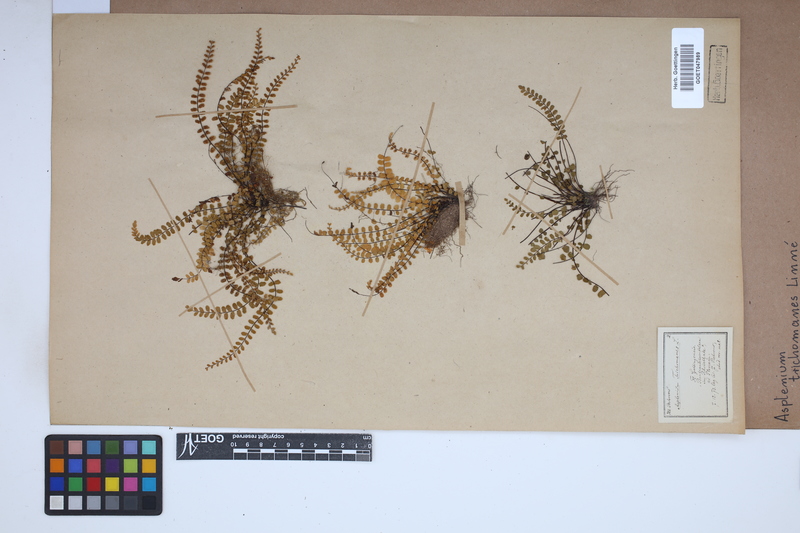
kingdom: Plantae
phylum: Tracheophyta
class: Polypodiopsida
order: Polypodiales
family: Aspleniaceae
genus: Asplenium
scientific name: Asplenium trichomanes
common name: Maidenhair spleenwort
